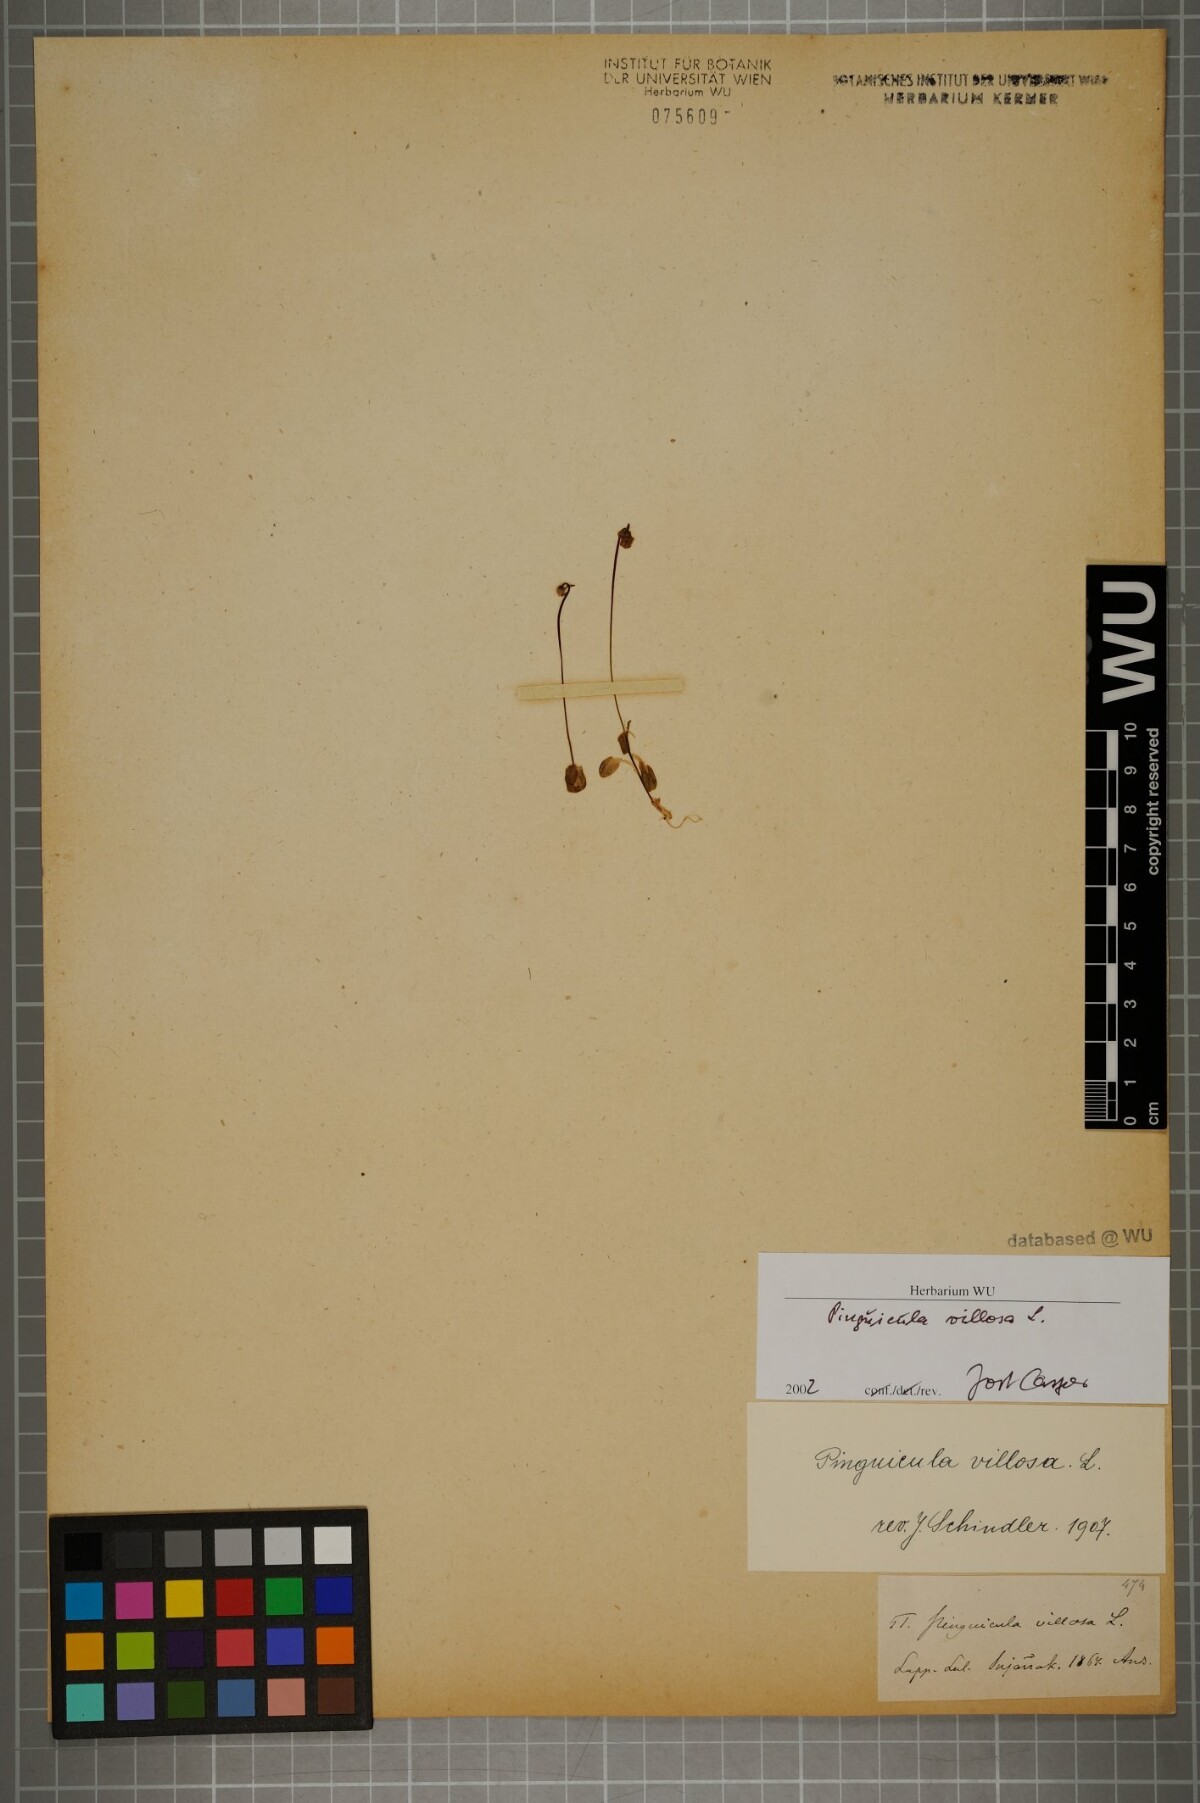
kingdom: Plantae
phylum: Tracheophyta
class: Magnoliopsida
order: Lamiales
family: Lentibulariaceae
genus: Pinguicula
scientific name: Pinguicula villosa
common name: Hairy butterwort
